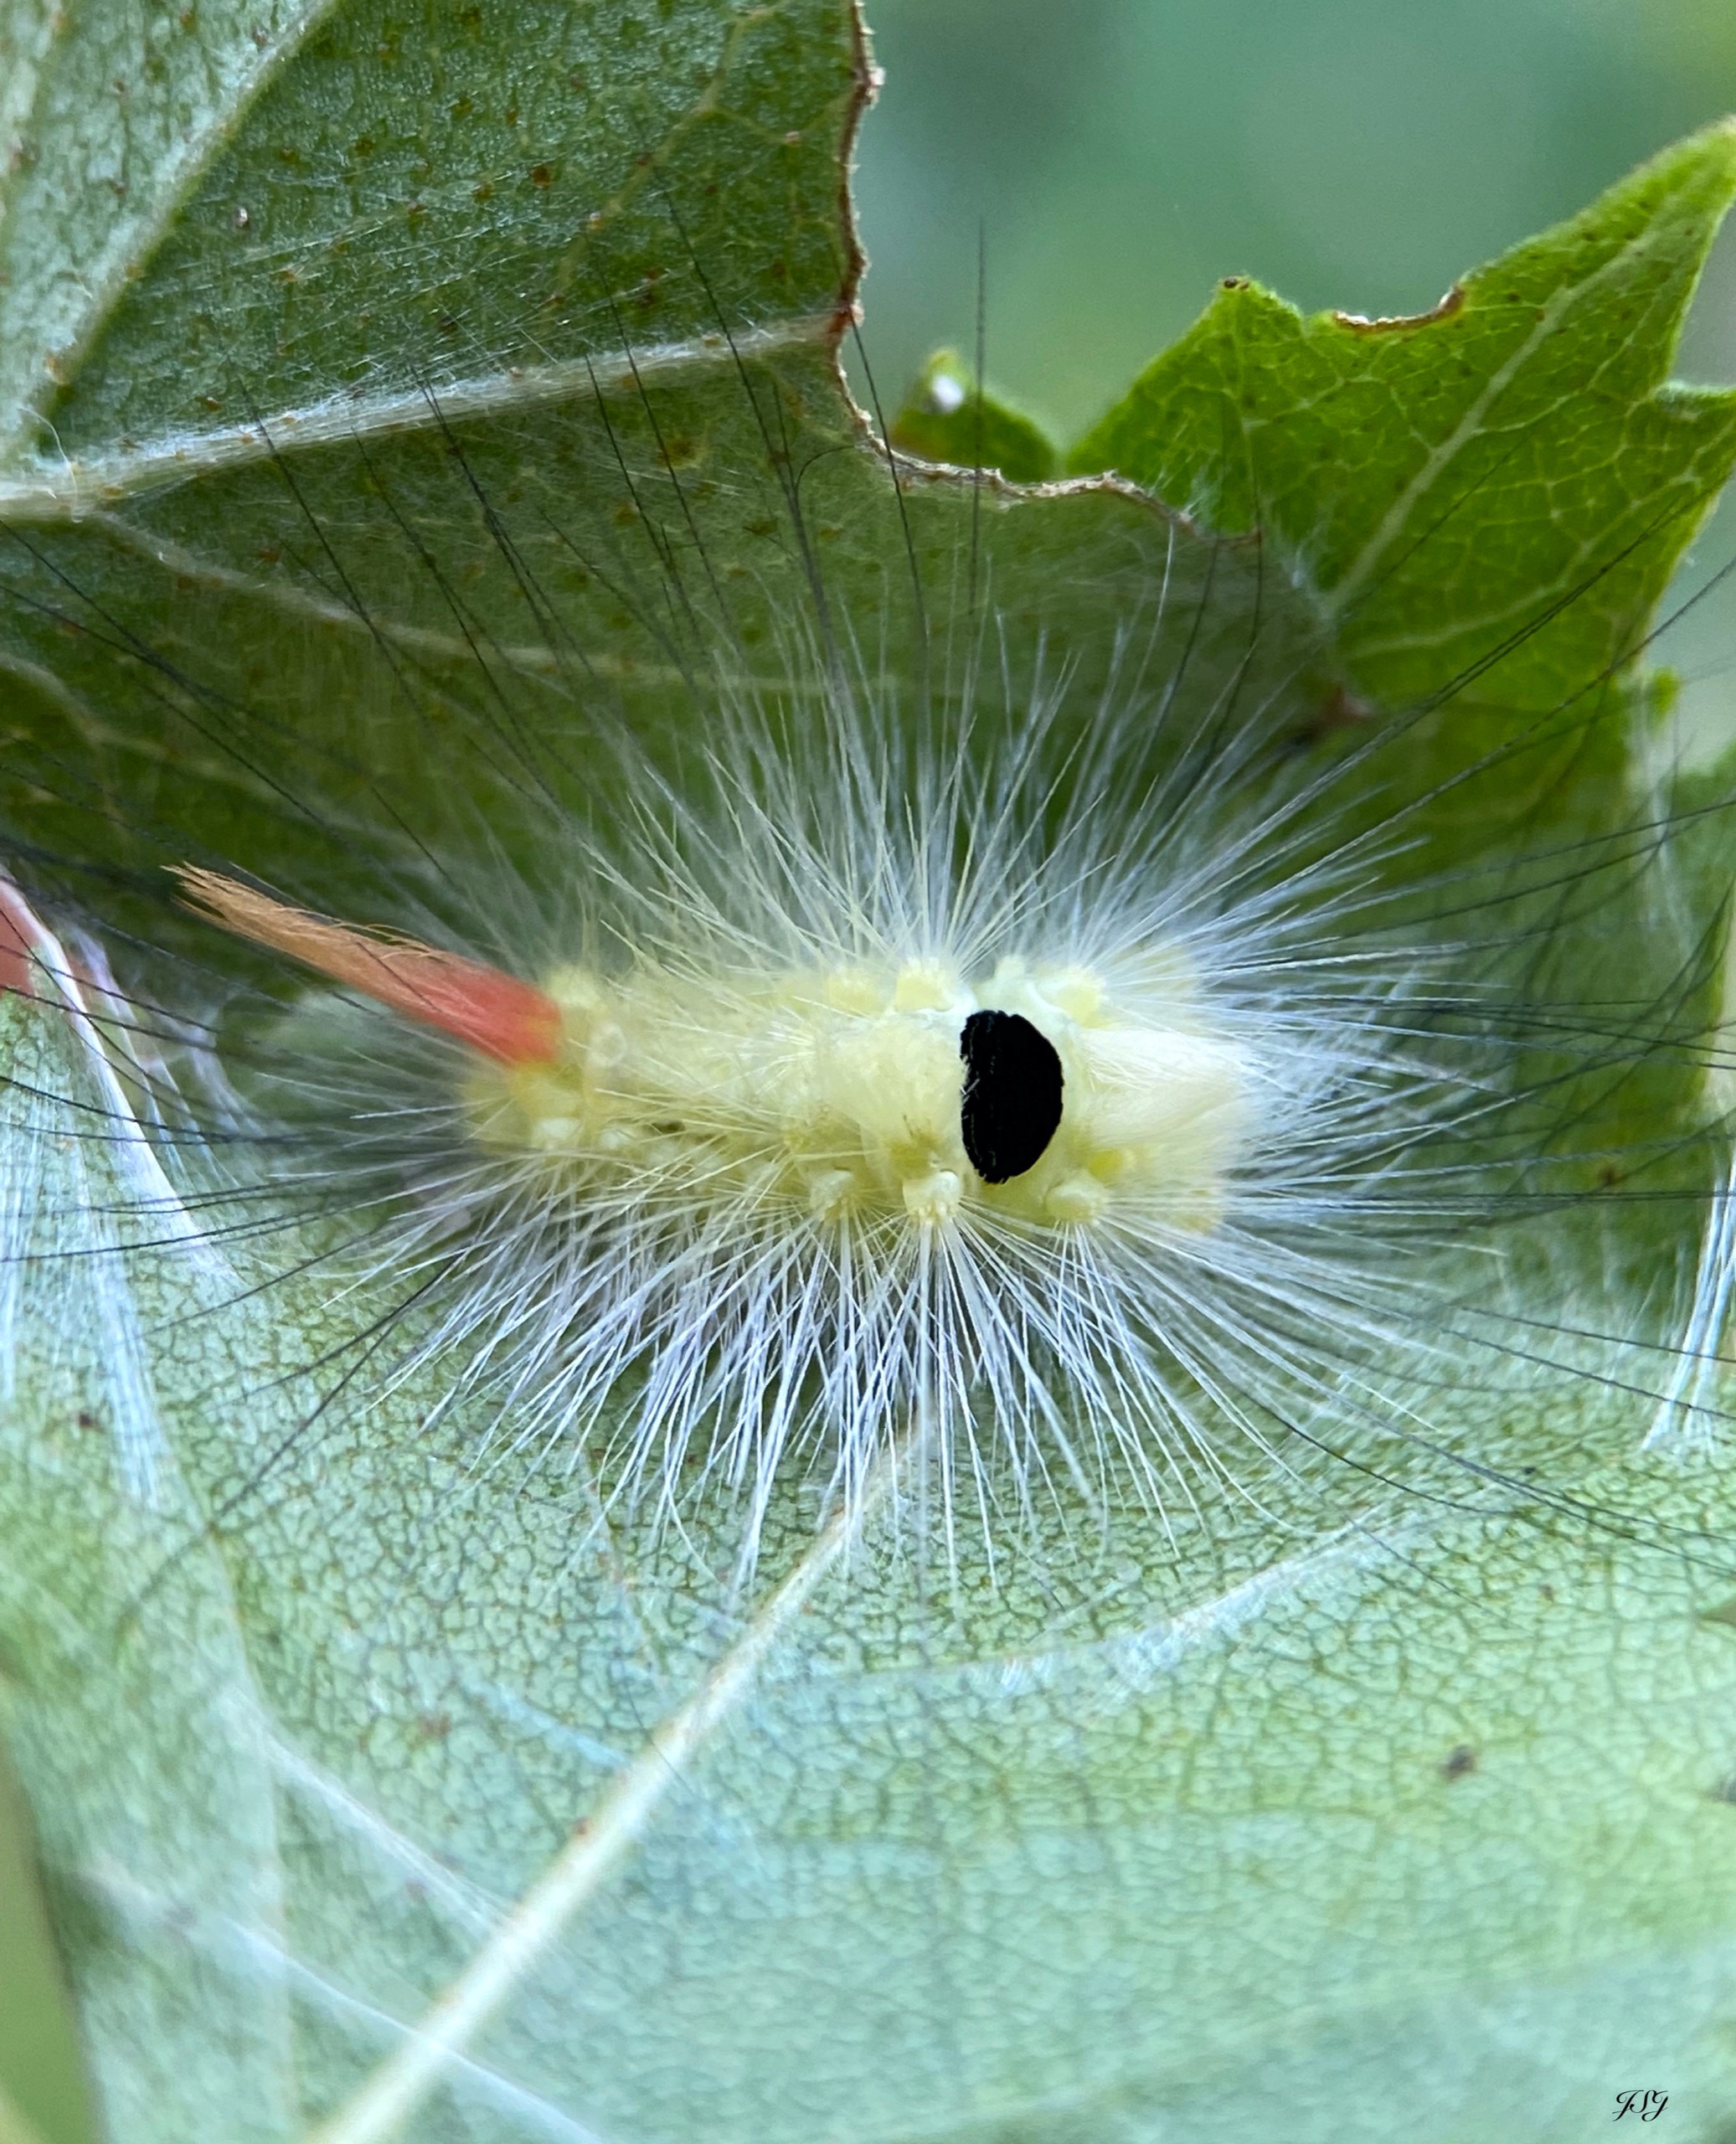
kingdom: Animalia
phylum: Arthropoda
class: Insecta
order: Lepidoptera
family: Erebidae
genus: Calliteara
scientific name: Calliteara pudibunda
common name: Bøgenonne
